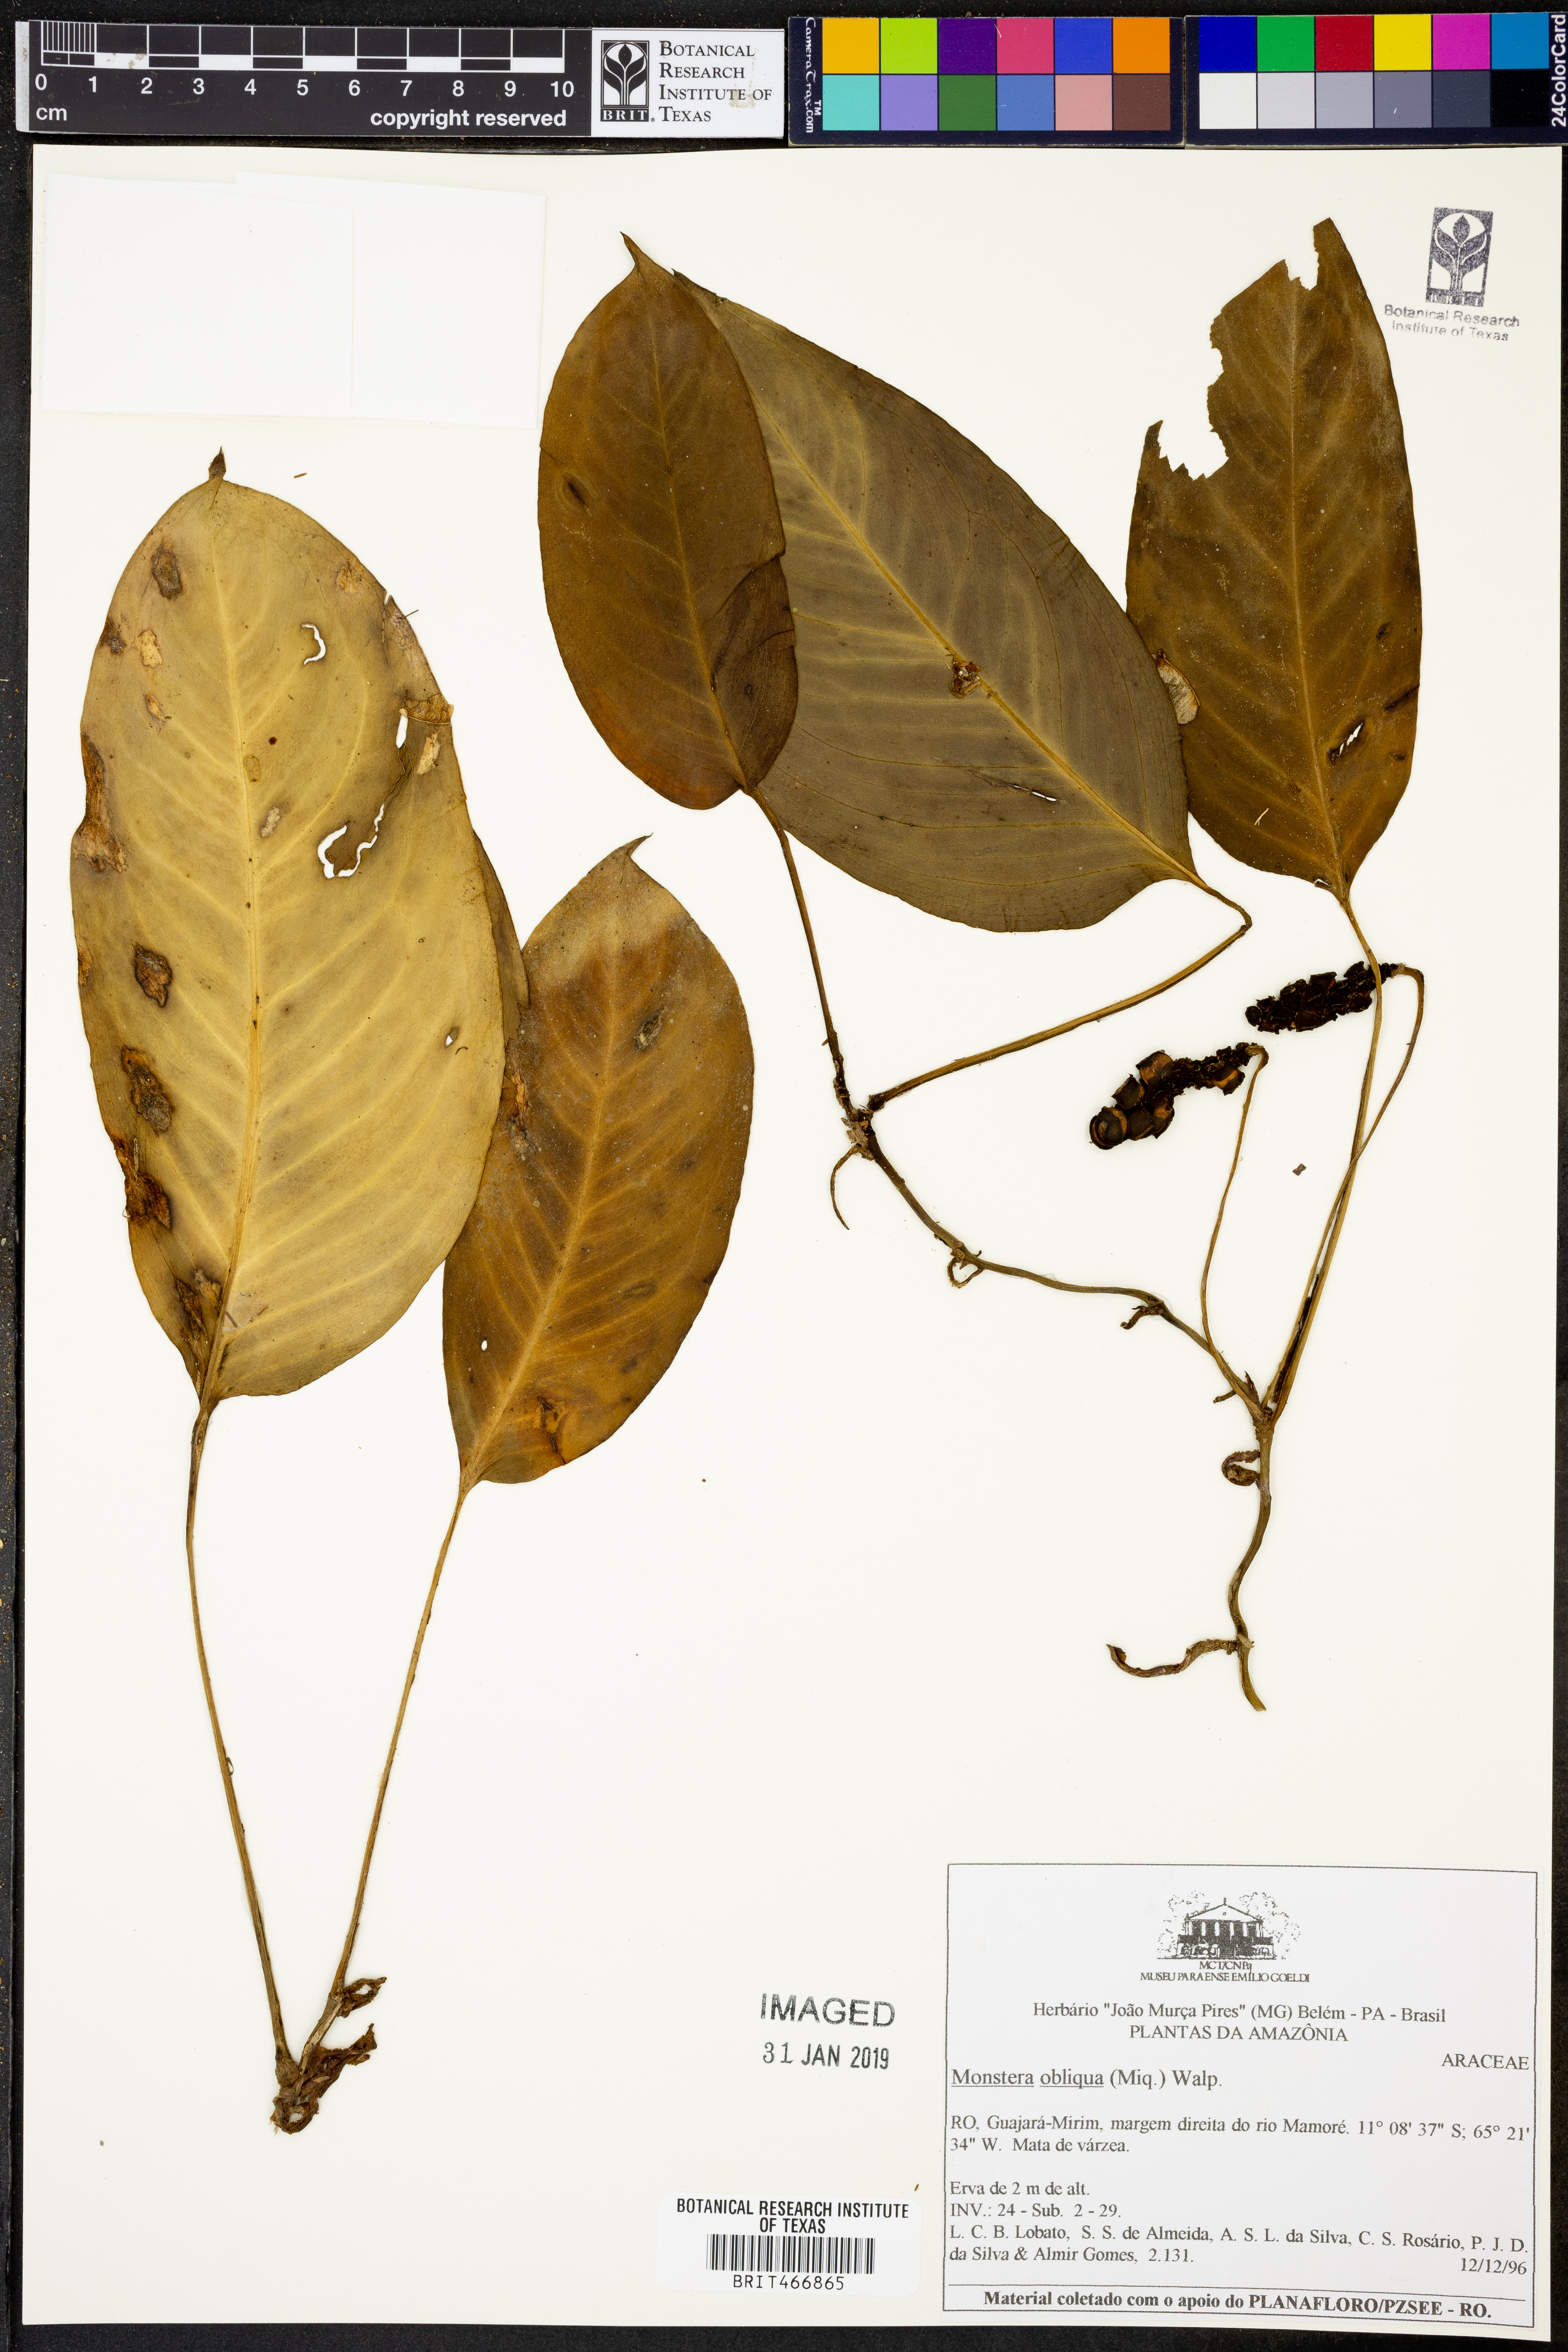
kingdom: Plantae
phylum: Tracheophyta
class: Liliopsida
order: Alismatales
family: Araceae
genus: Monstera
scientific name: Monstera obliqua
